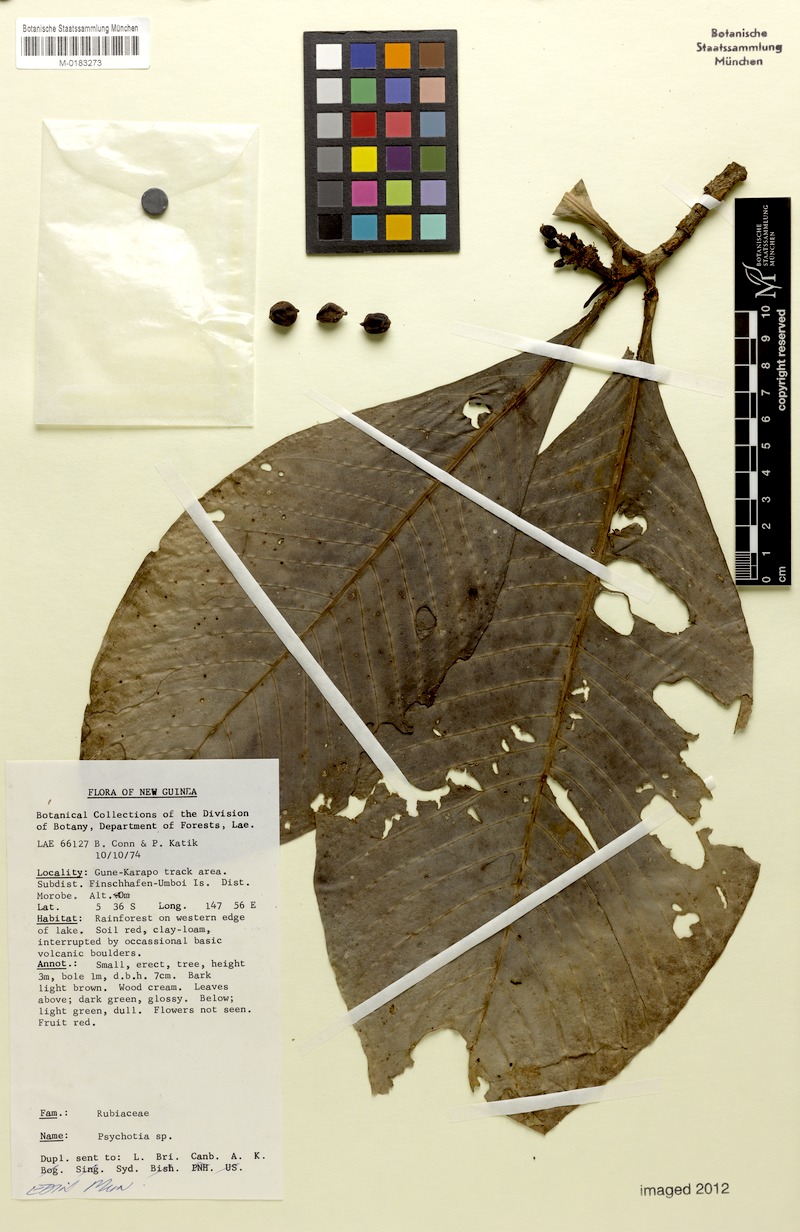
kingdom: Plantae
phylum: Tracheophyta
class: Magnoliopsida
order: Gentianales
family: Rubiaceae
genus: Psychotria
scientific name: Psychotria crassipedunculata
